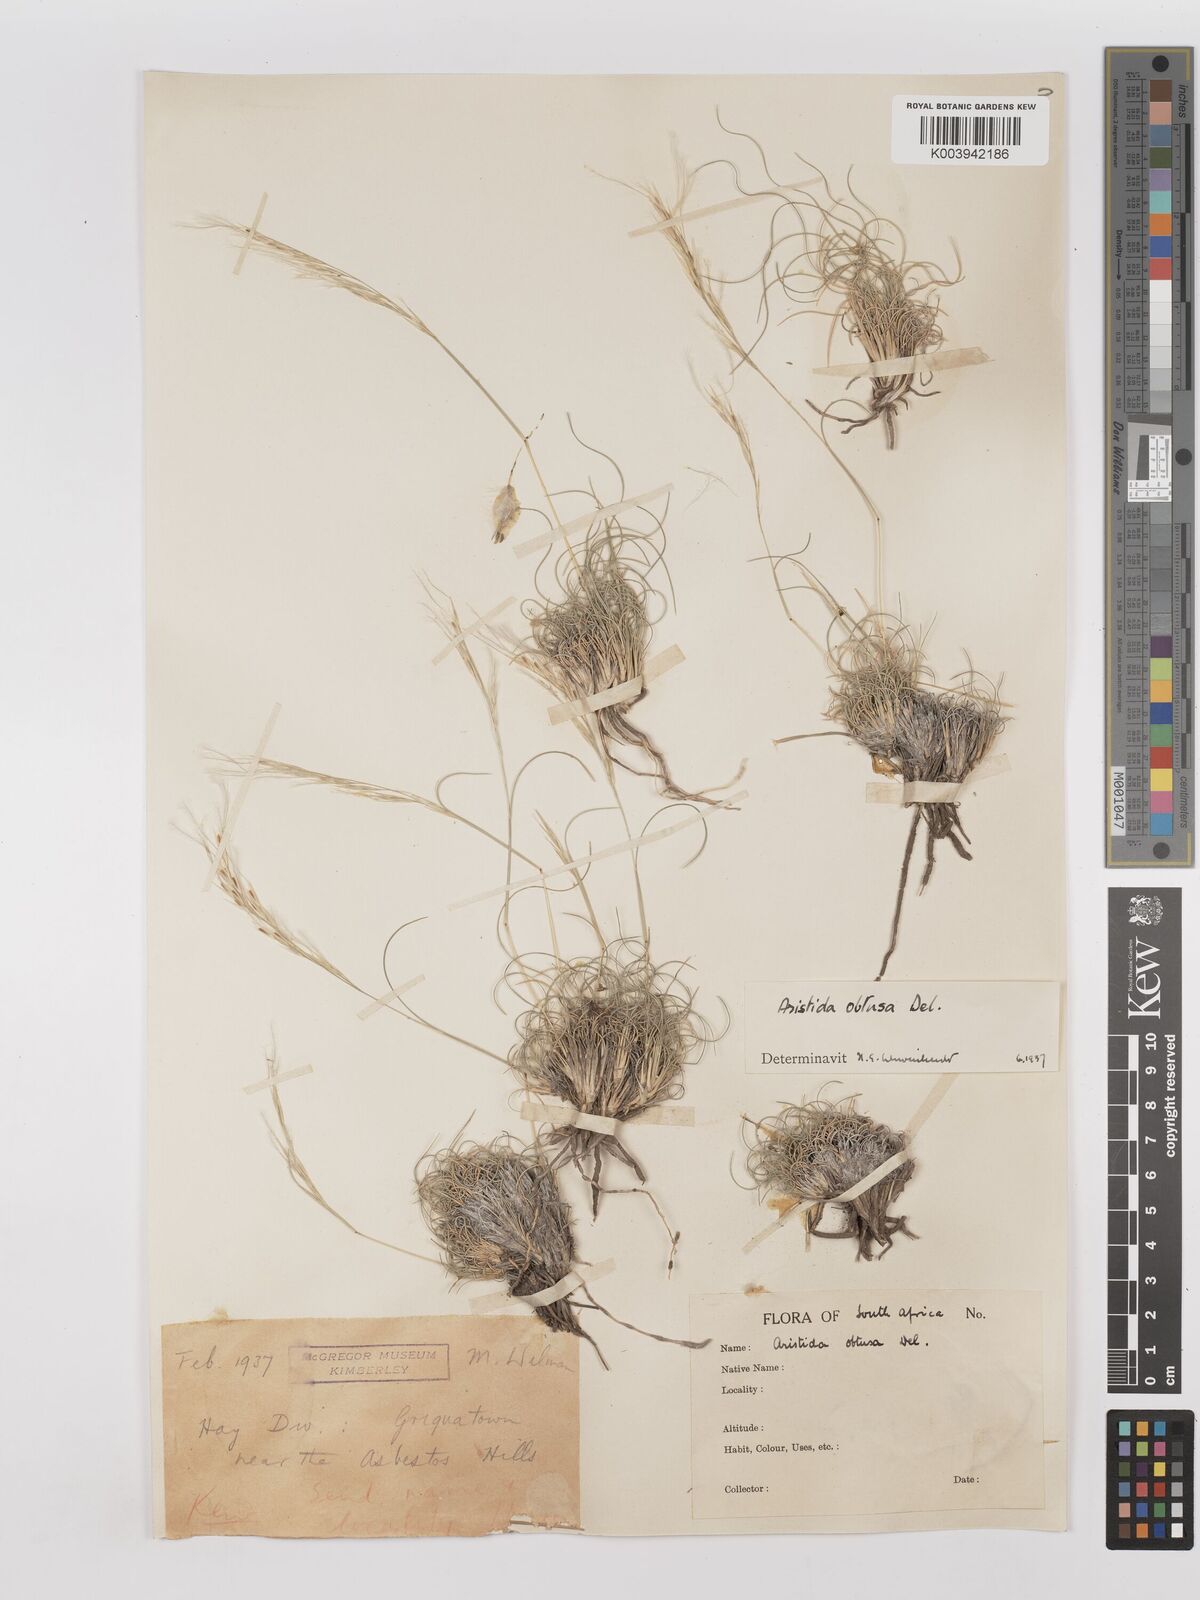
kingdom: Plantae
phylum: Tracheophyta
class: Liliopsida
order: Poales
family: Poaceae
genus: Stipagrostis
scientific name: Stipagrostis obtusa
